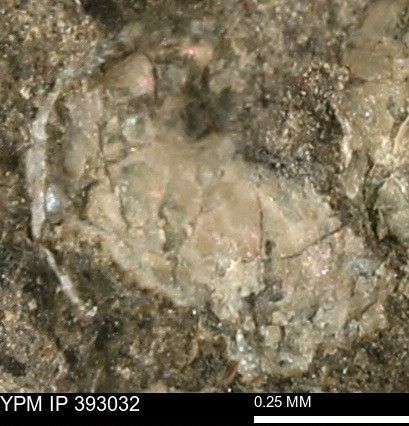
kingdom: Animalia
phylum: Mollusca
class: Cephalopoda
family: Scaphitidae
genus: Scaphites
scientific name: Scaphites
